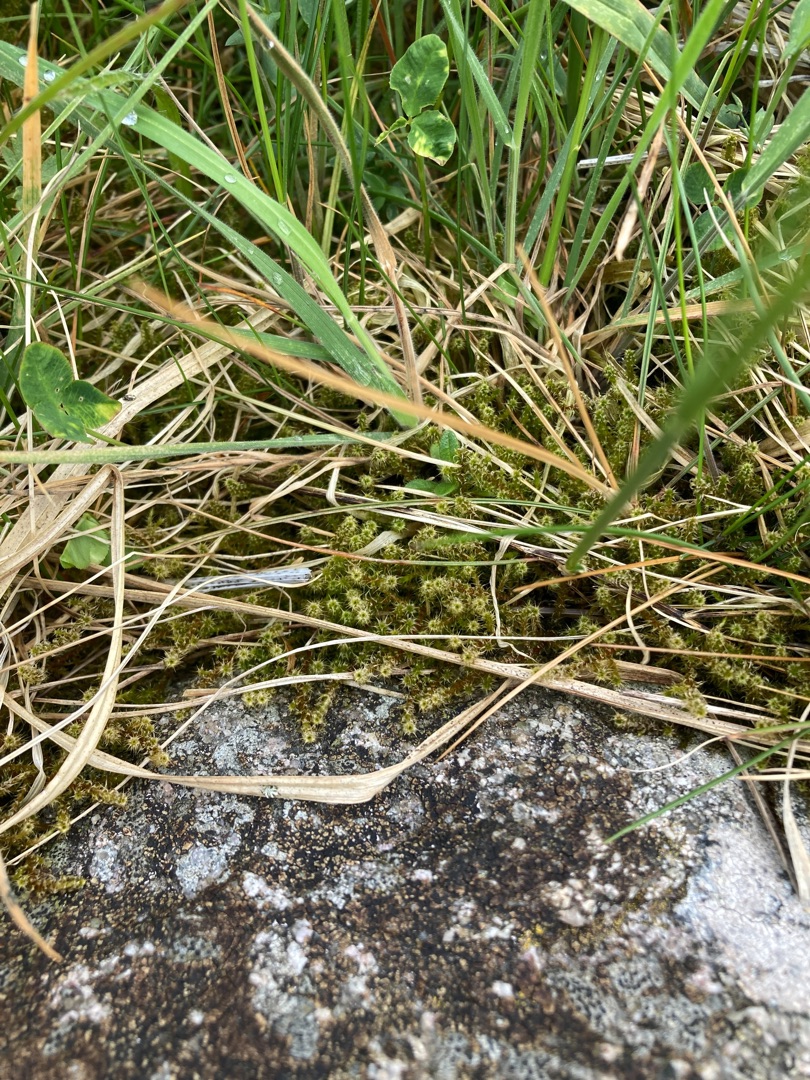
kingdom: Plantae
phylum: Bryophyta
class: Bryopsida
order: Hypnales
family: Hylocomiaceae
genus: Rhytidiadelphus
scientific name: Rhytidiadelphus squarrosus
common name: Plæne-kransemos
